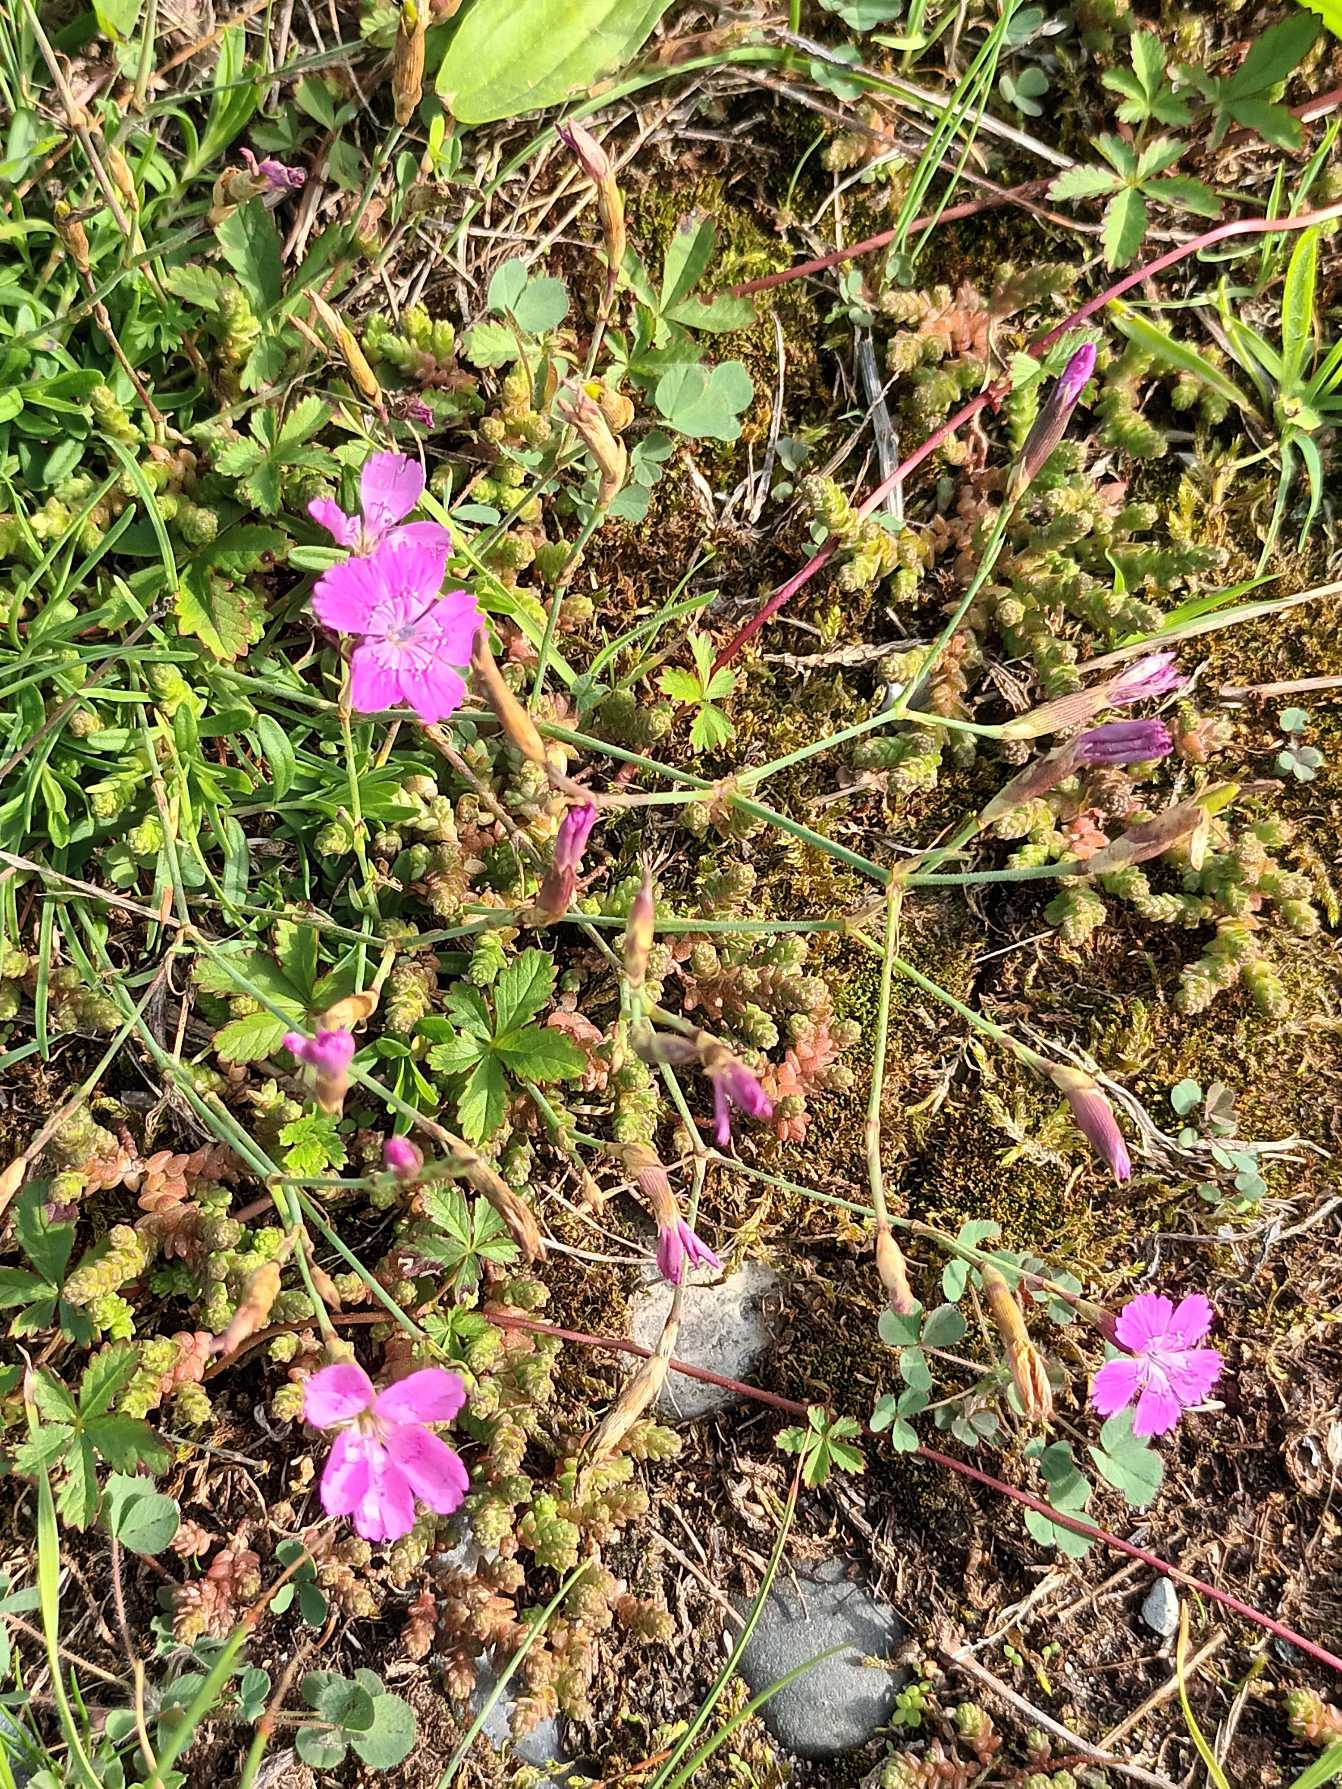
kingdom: Plantae
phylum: Tracheophyta
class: Magnoliopsida
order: Caryophyllales
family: Caryophyllaceae
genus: Dianthus
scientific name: Dianthus deltoides
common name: Bakke-nellike
